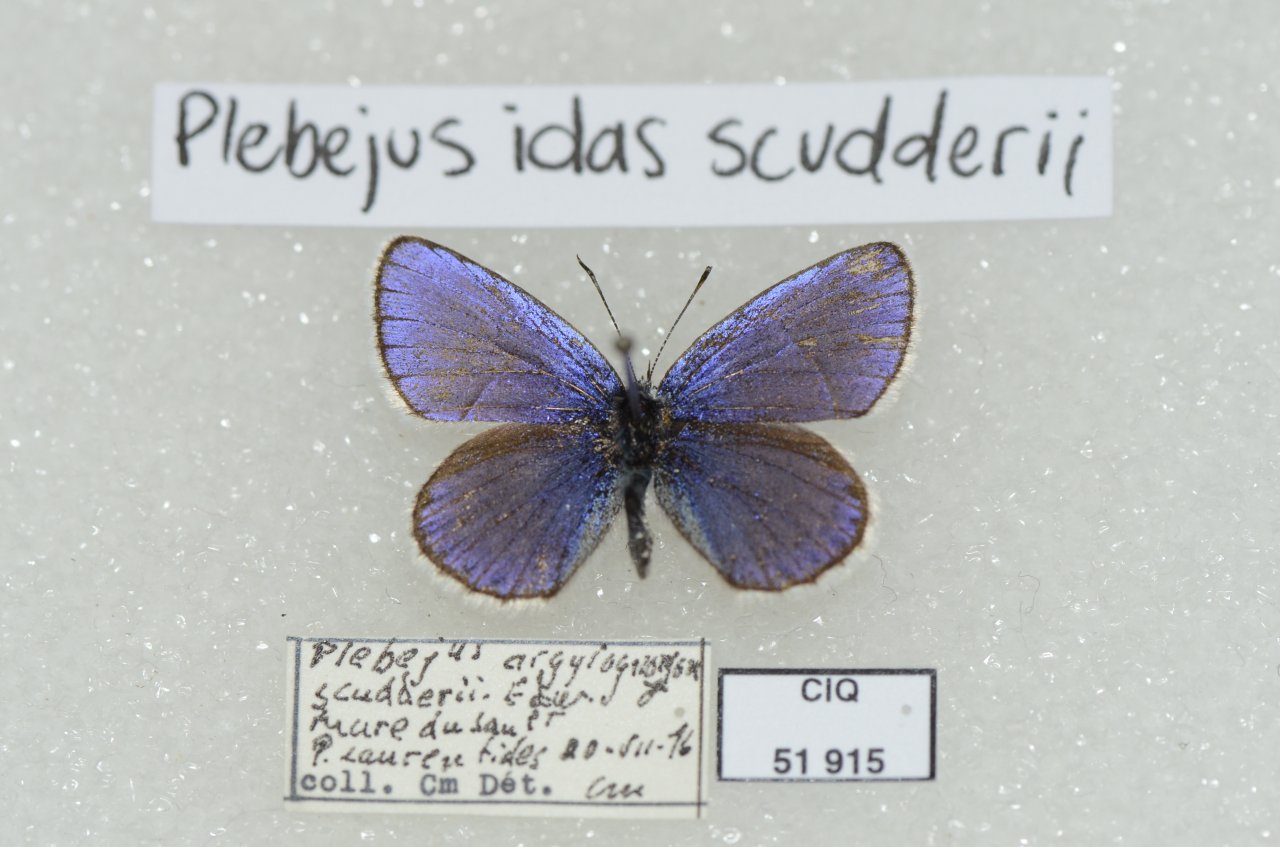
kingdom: Animalia
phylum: Arthropoda
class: Insecta
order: Lepidoptera
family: Lycaenidae
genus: Lycaeides
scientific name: Lycaeides idas
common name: Northern Blue
